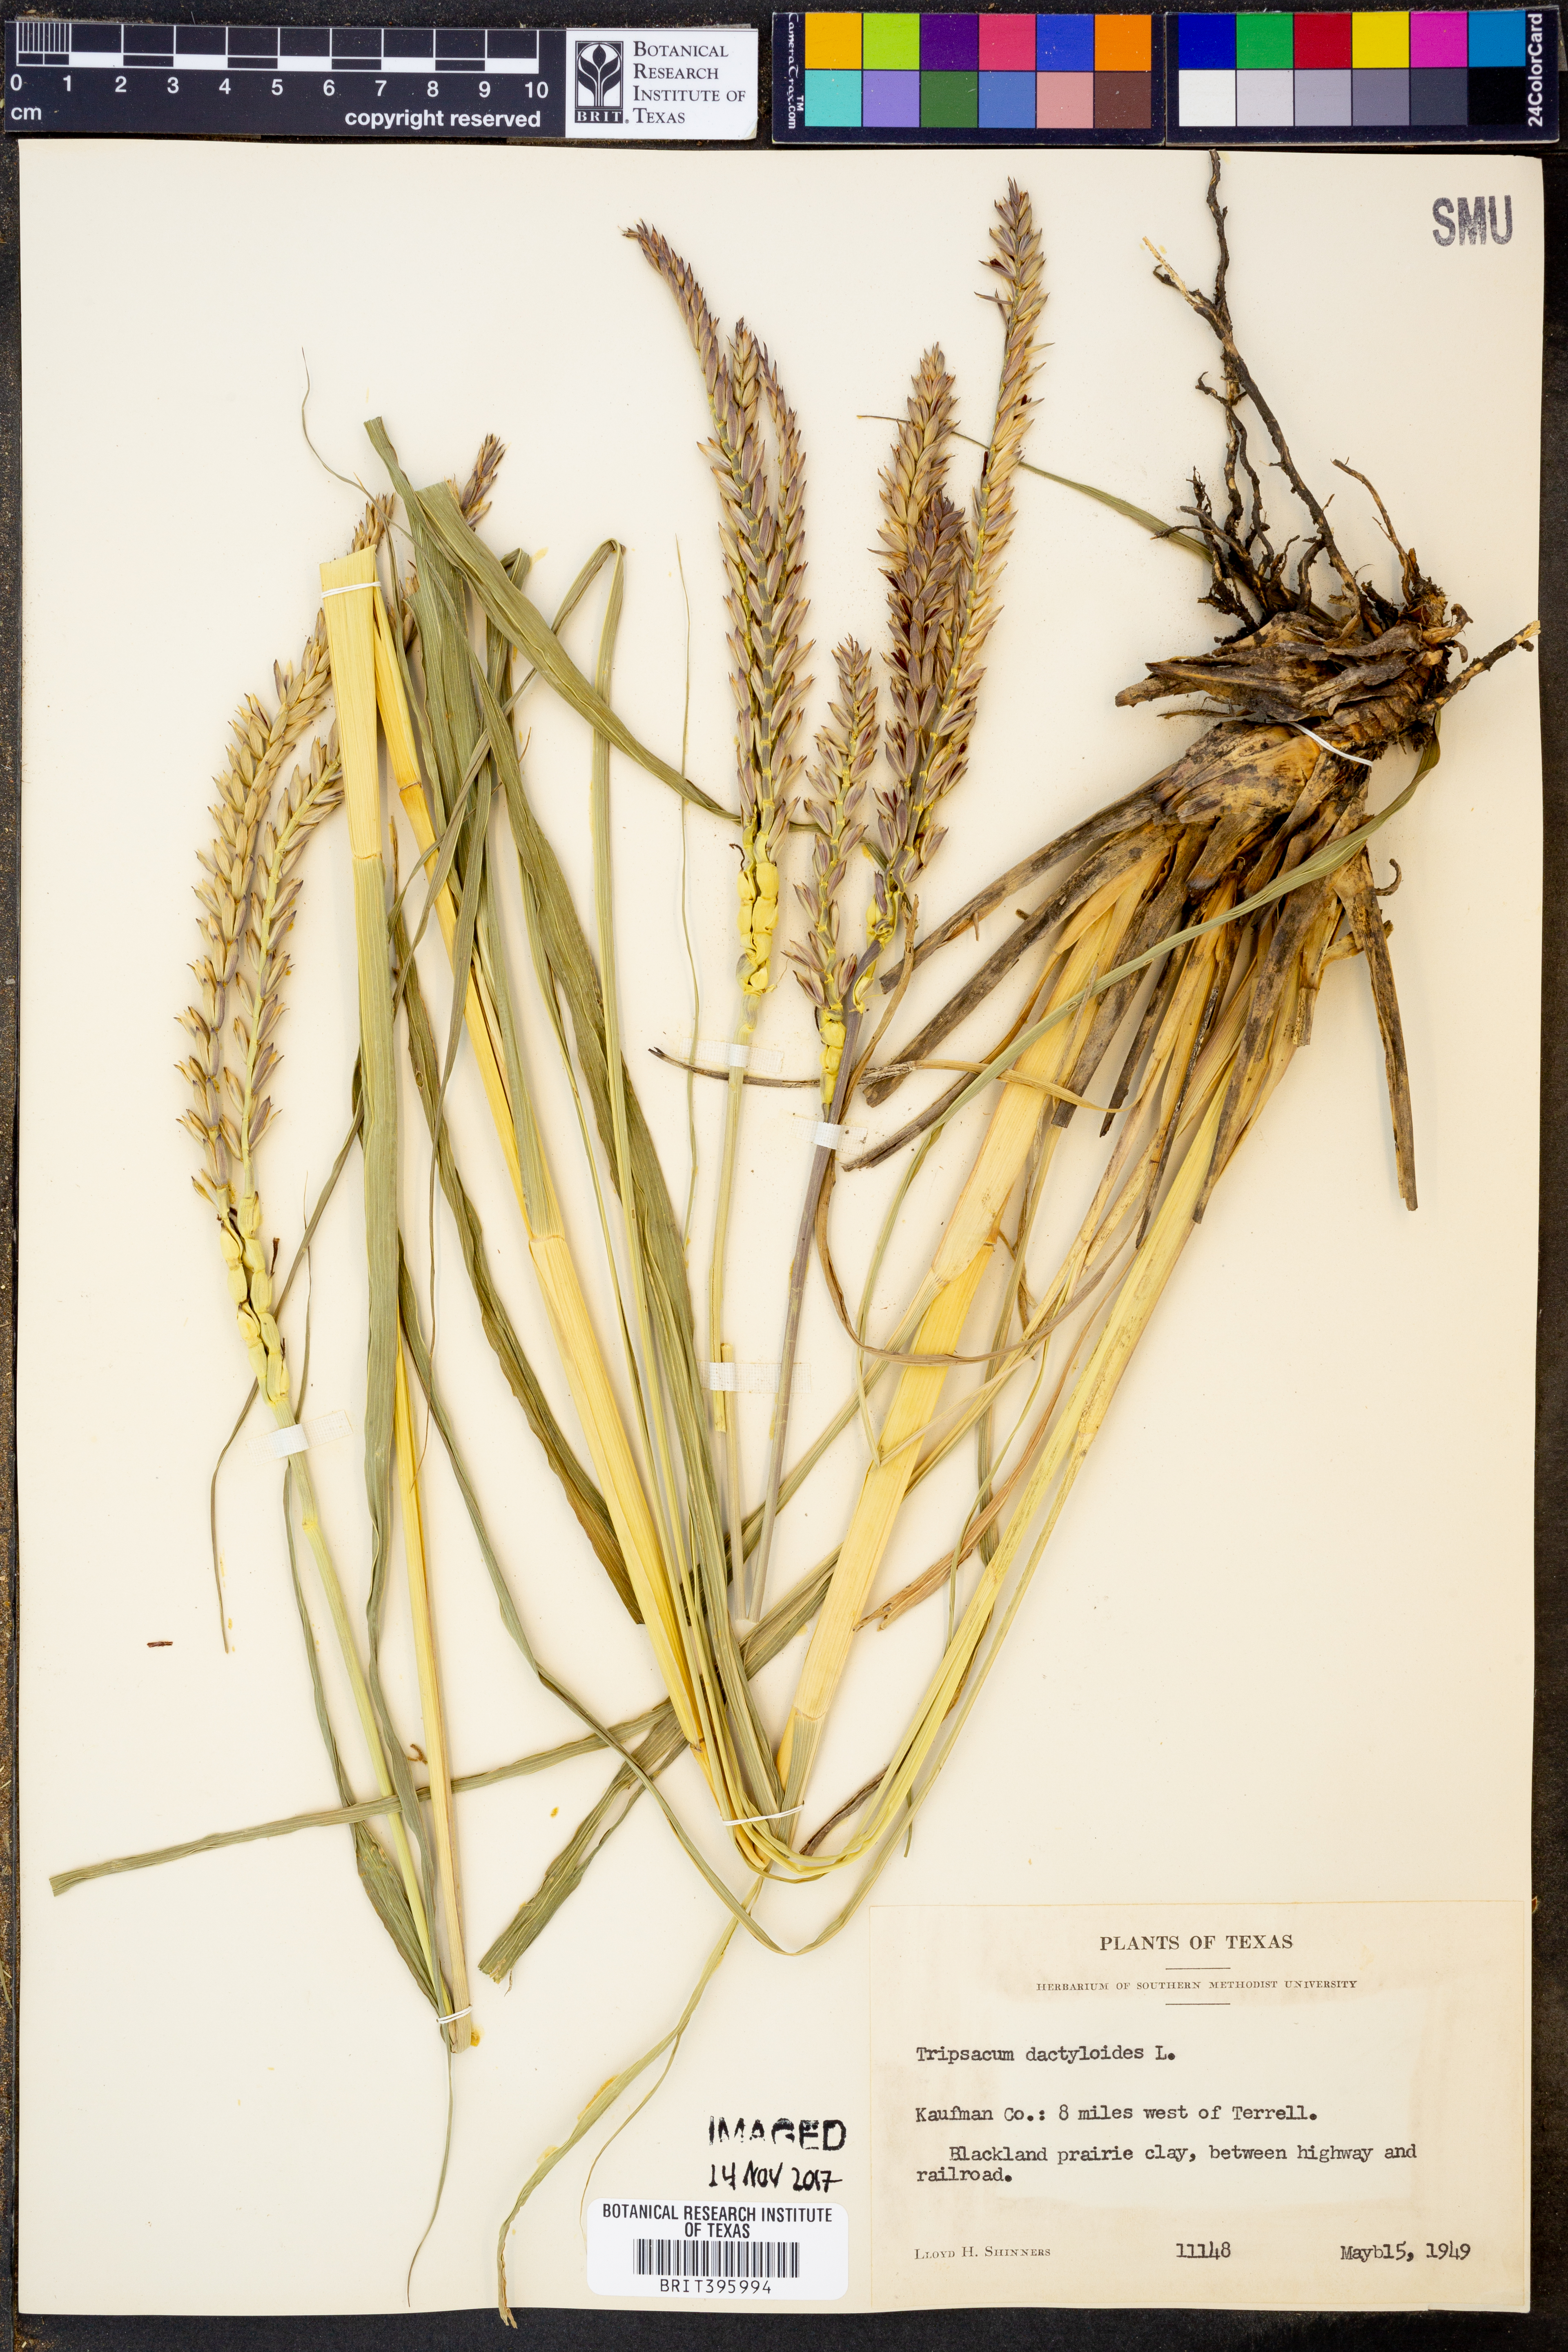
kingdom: Plantae
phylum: Tracheophyta
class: Liliopsida
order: Poales
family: Poaceae
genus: Tripsacum
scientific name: Tripsacum dactyloides
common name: Buffalo-grass
